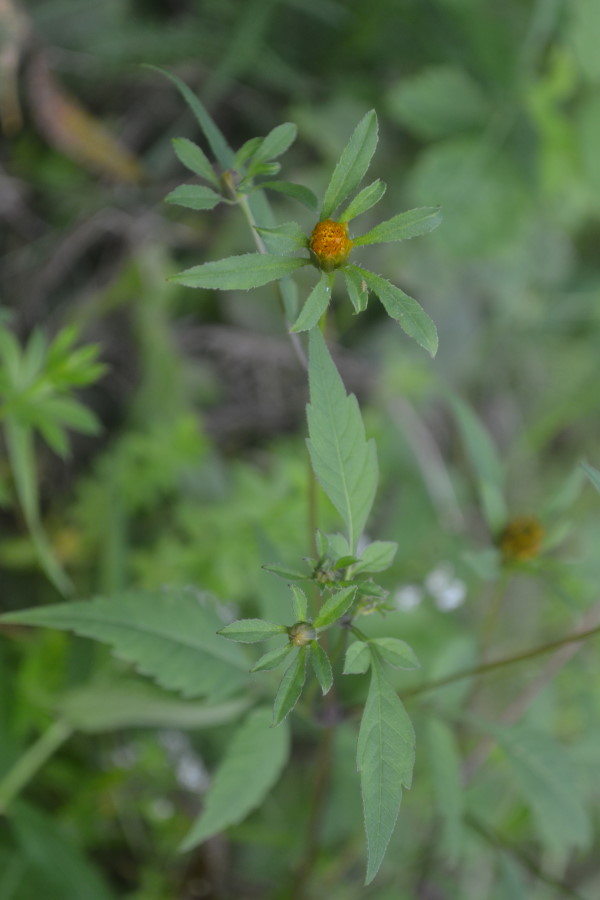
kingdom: Plantae
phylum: Tracheophyta
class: Magnoliopsida
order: Asterales
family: Asteraceae
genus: Bidens
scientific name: Bidens frondosa
